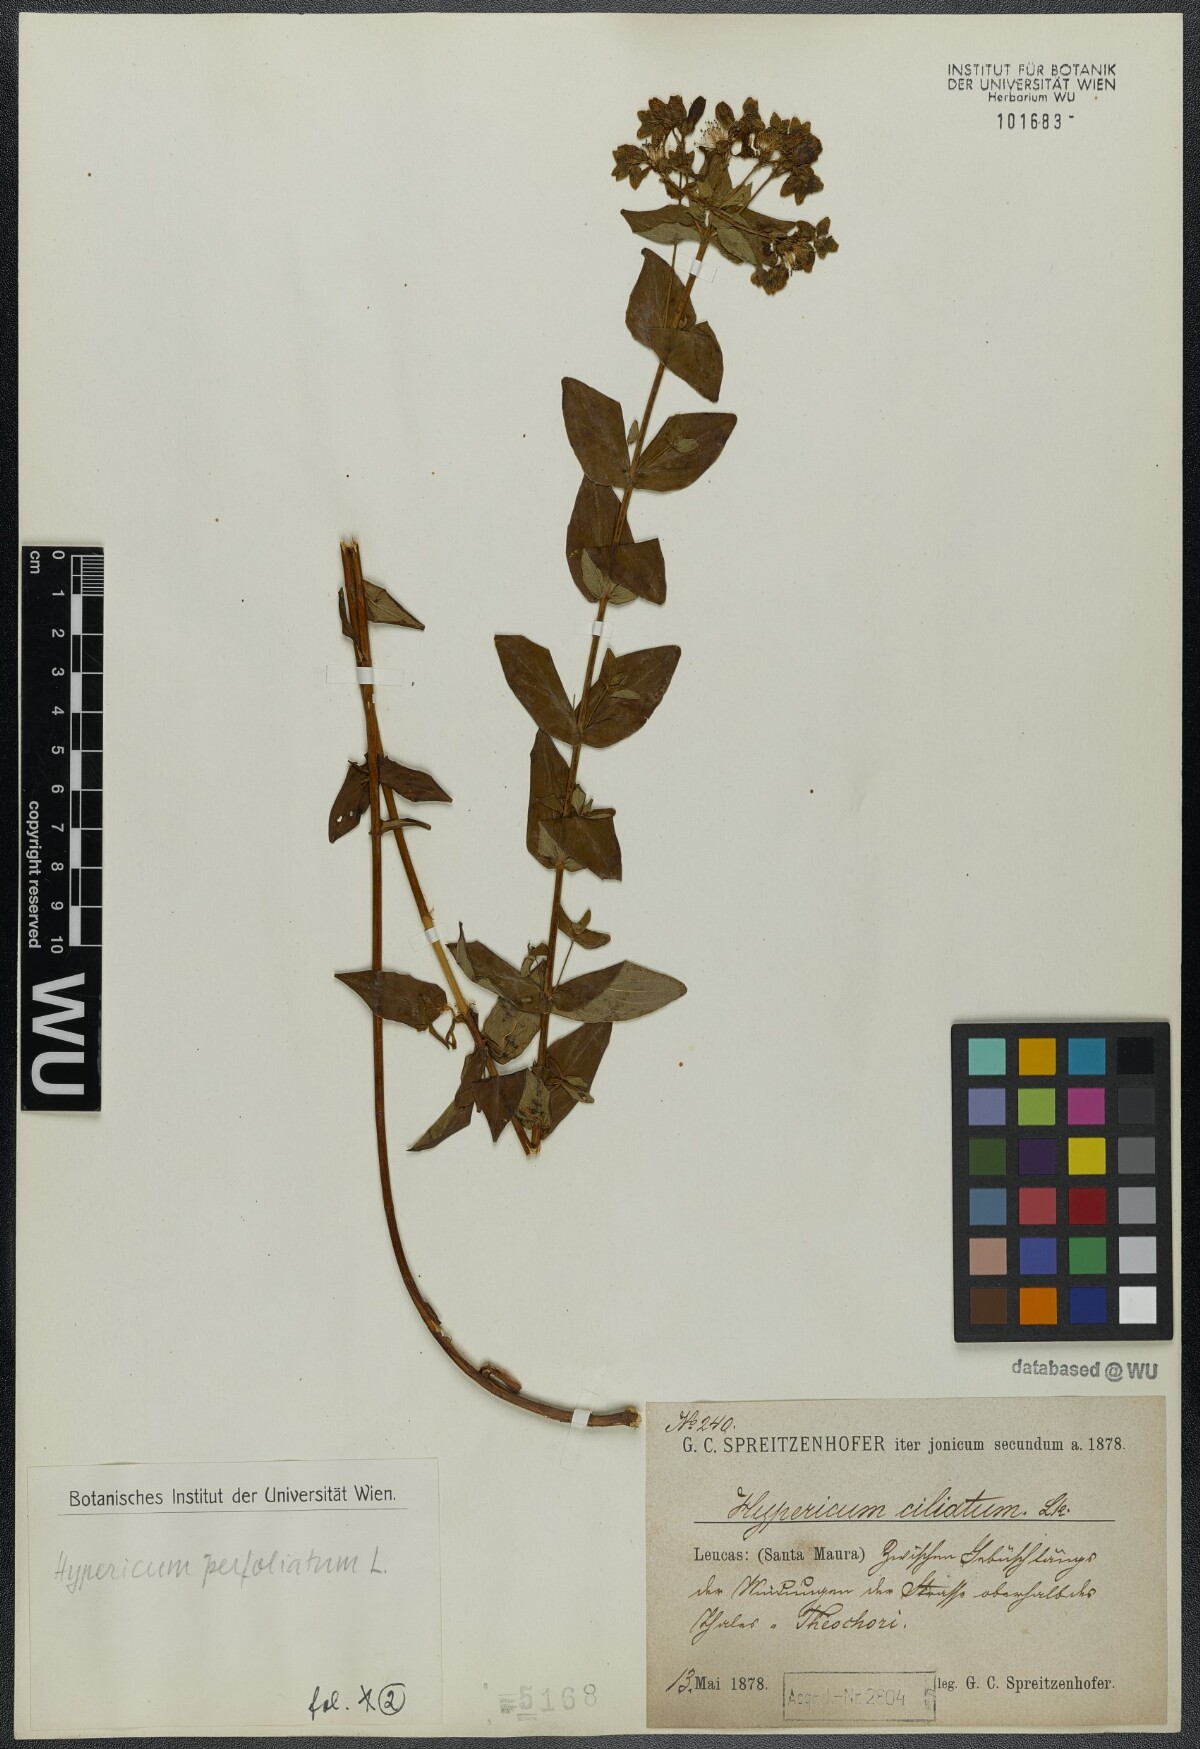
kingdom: Plantae
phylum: Tracheophyta
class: Magnoliopsida
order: Malpighiales
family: Hypericaceae
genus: Hypericum
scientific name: Hypericum perfoliatum
